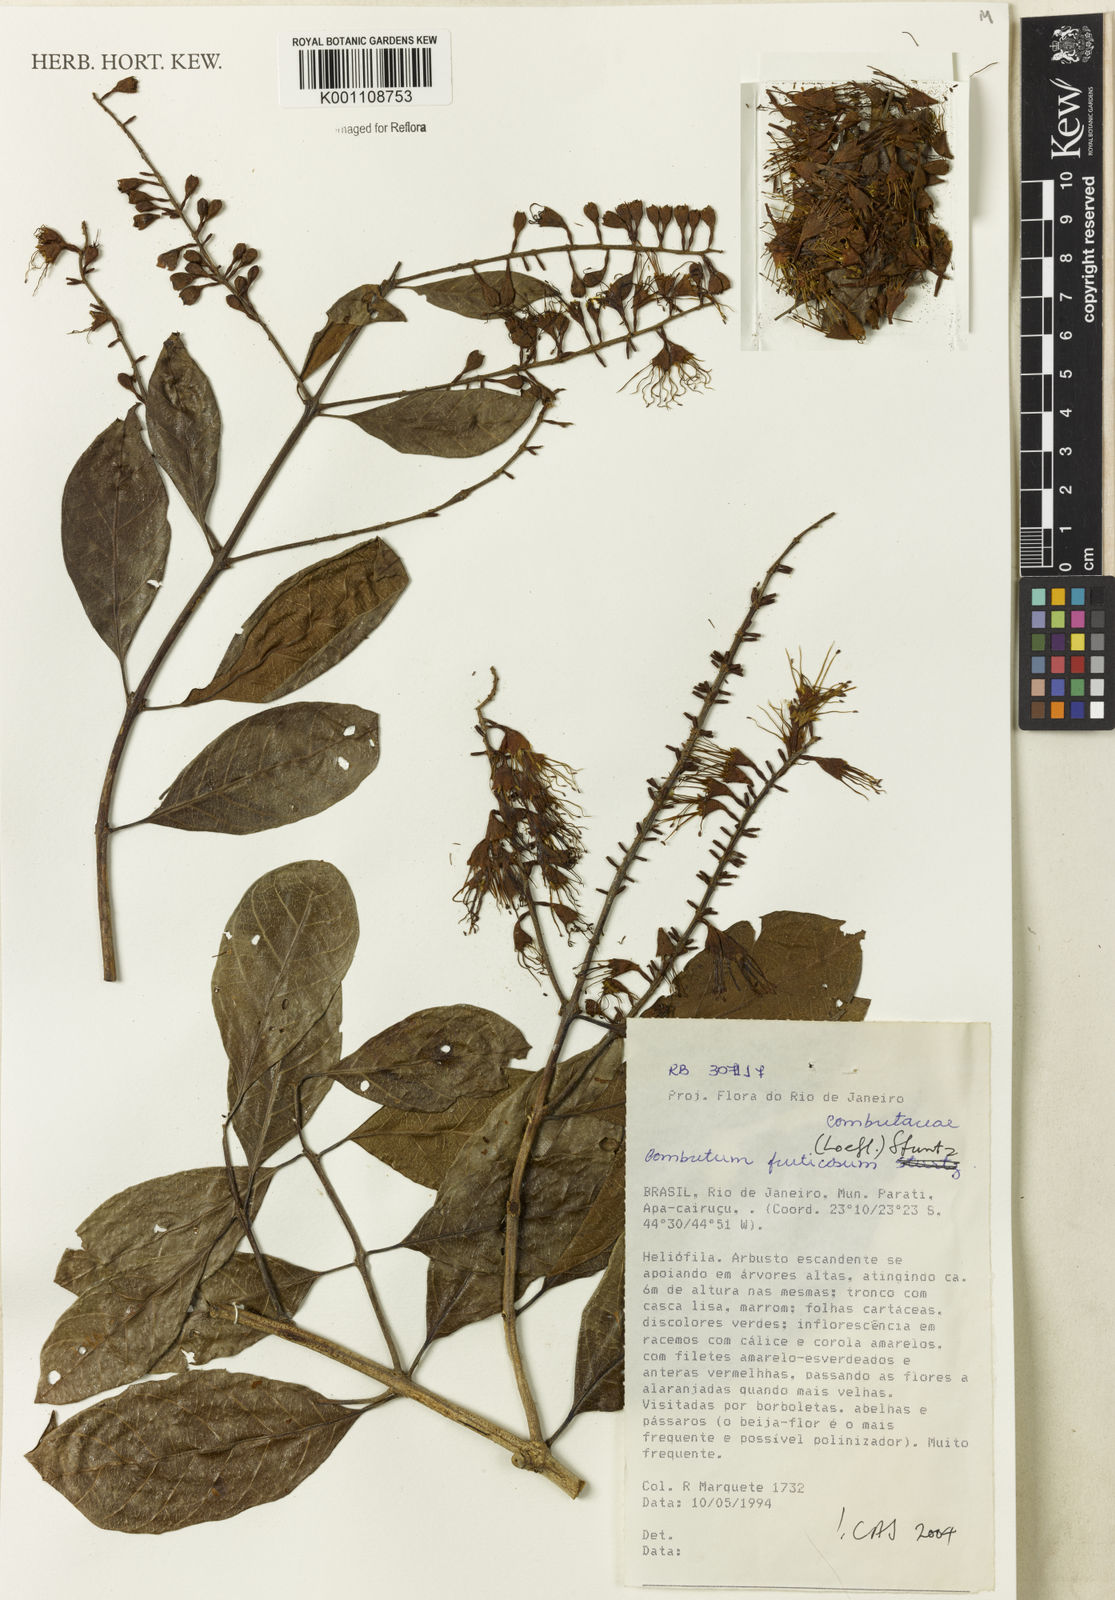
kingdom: Plantae
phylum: Tracheophyta
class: Magnoliopsida
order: Myrtales
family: Combretaceae
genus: Combretum
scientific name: Combretum fruticosum
